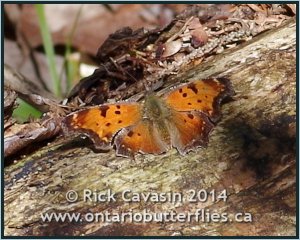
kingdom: Animalia
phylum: Arthropoda
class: Insecta
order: Lepidoptera
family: Nymphalidae
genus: Polygonia
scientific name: Polygonia progne
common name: Gray Comma
